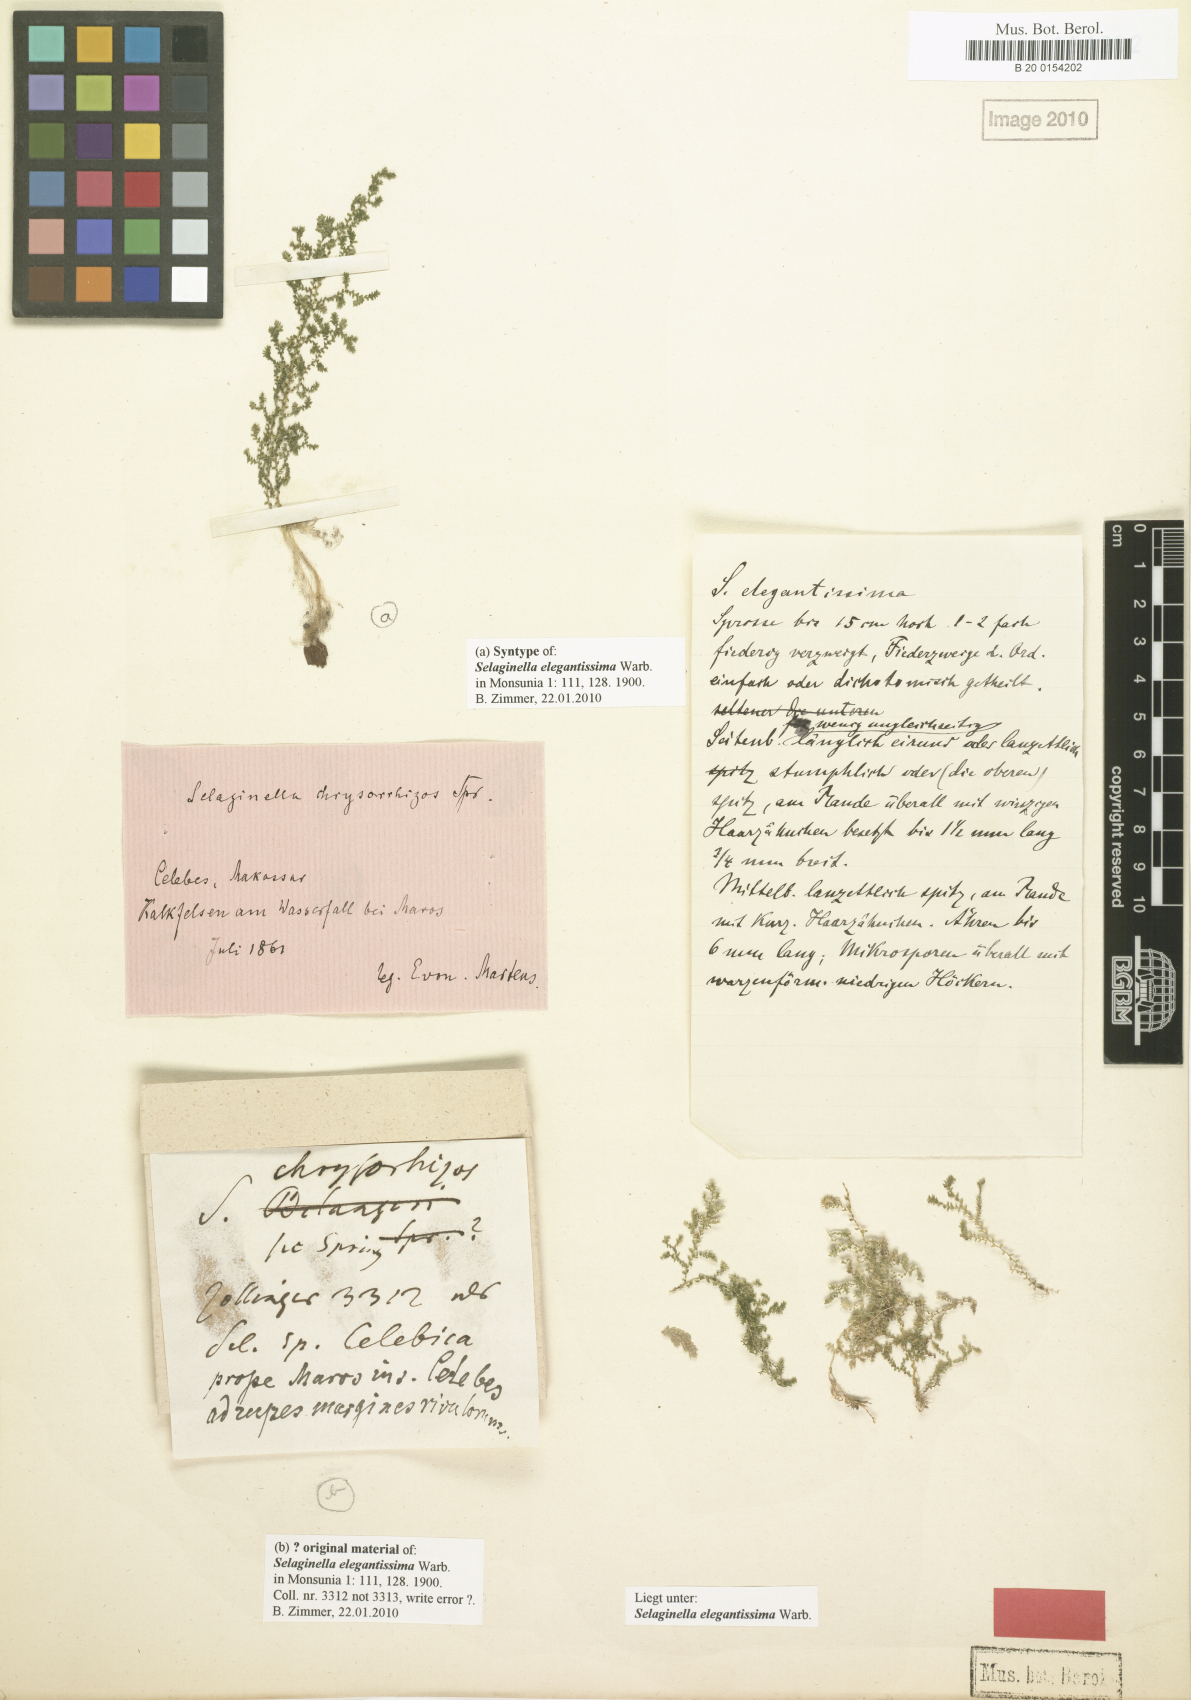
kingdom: Plantae
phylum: Tracheophyta
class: Lycopodiopsida
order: Selaginellales
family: Selaginellaceae
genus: Selaginella
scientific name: Selaginella elegantissima
